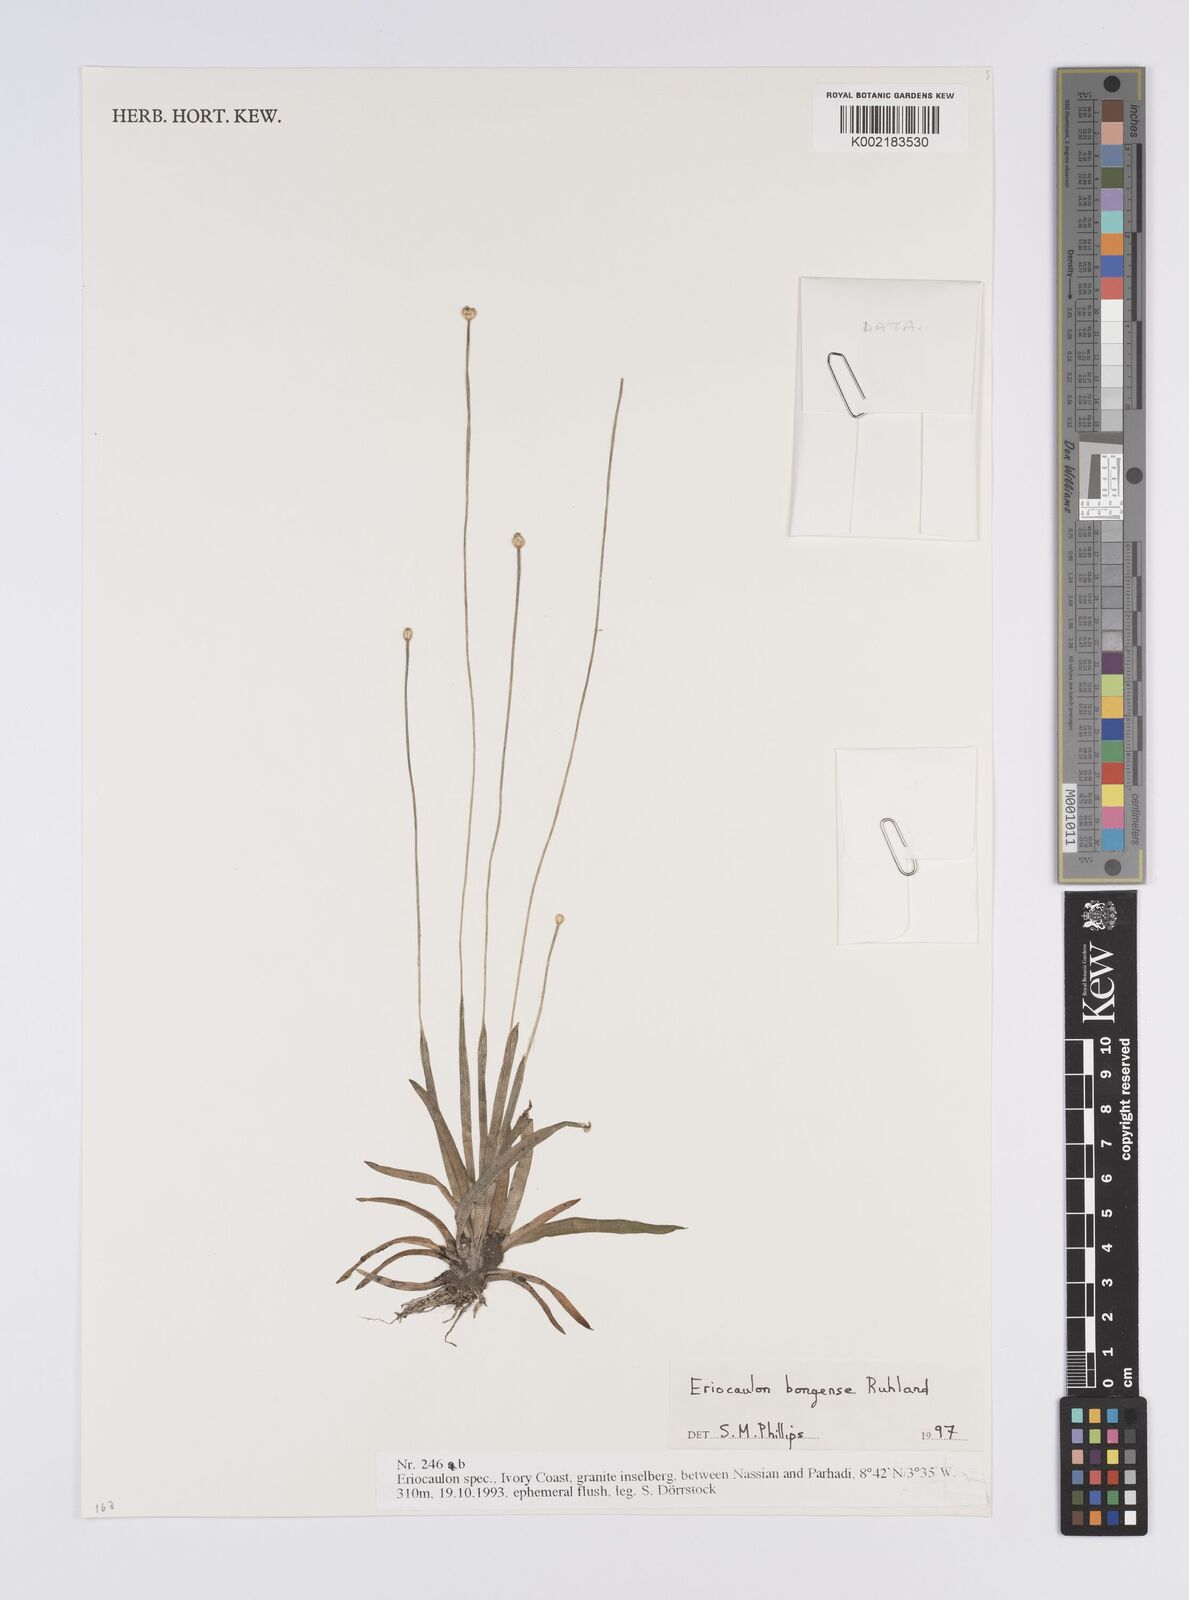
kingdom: Plantae
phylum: Tracheophyta
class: Liliopsida
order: Poales
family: Eriocaulaceae
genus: Eriocaulon
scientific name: Eriocaulon bongense
